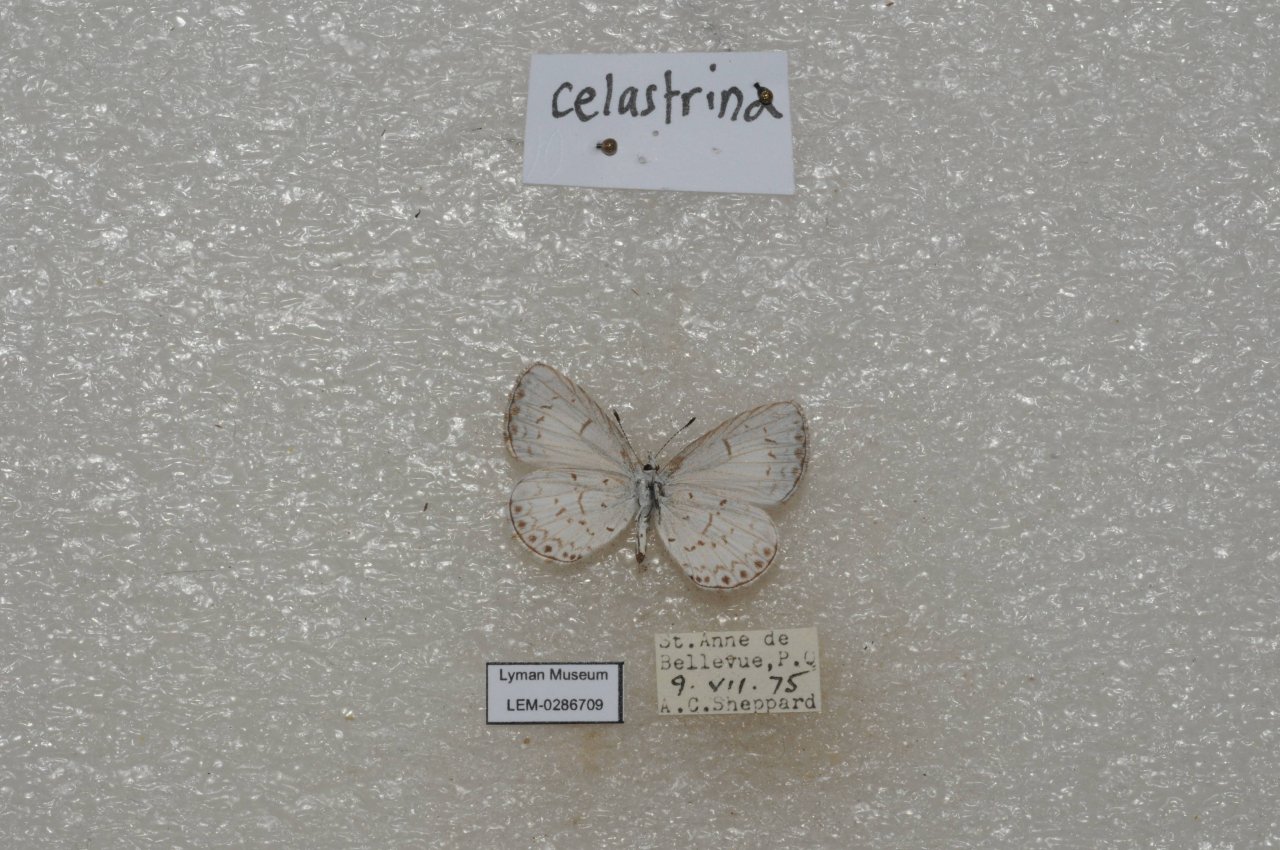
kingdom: Animalia
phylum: Arthropoda
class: Insecta
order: Lepidoptera
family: Lycaenidae
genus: Celastrina
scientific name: Celastrina lucia
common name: Northern Spring Azure
